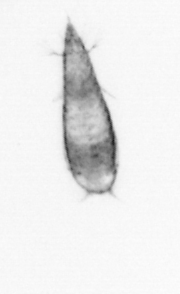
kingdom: Animalia
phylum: Annelida
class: Polychaeta
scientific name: Polychaeta
